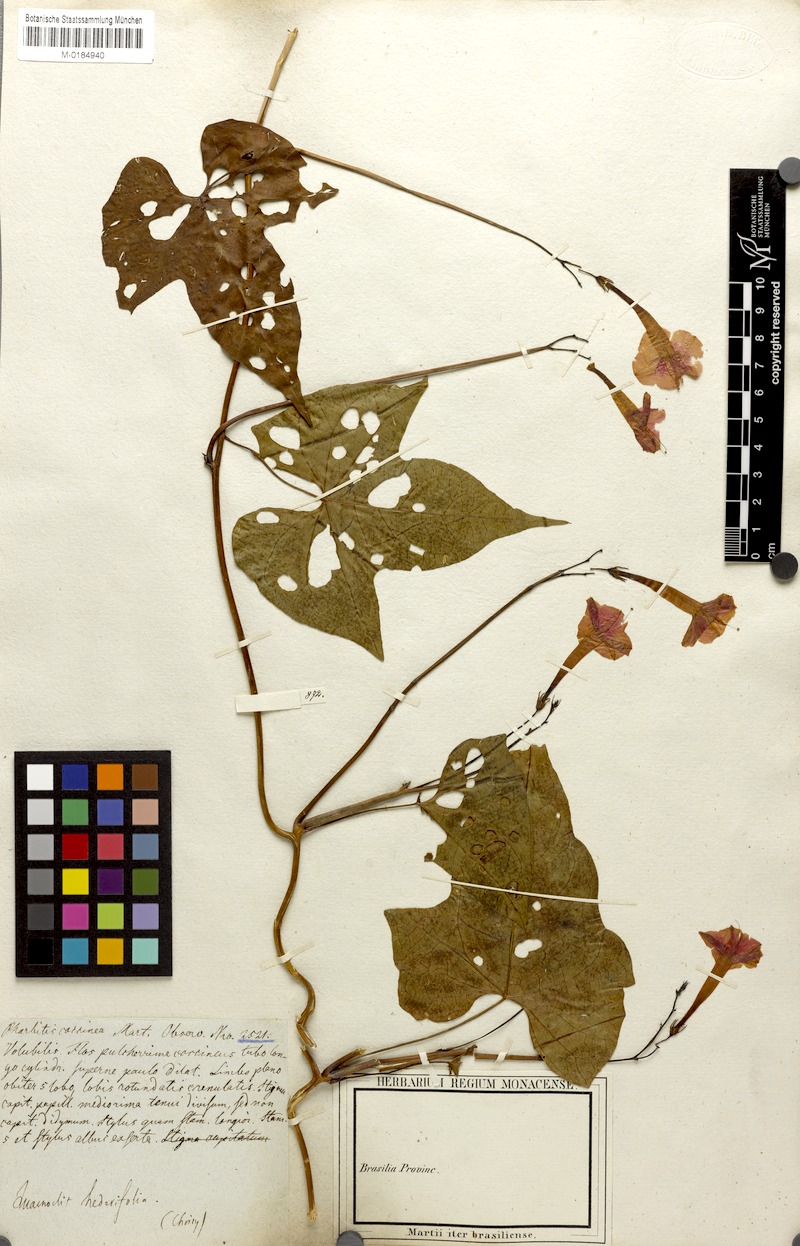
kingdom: Plantae
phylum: Tracheophyta
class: Magnoliopsida
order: Solanales
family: Convolvulaceae
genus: Ipomoea
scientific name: Ipomoea eriocarpa
